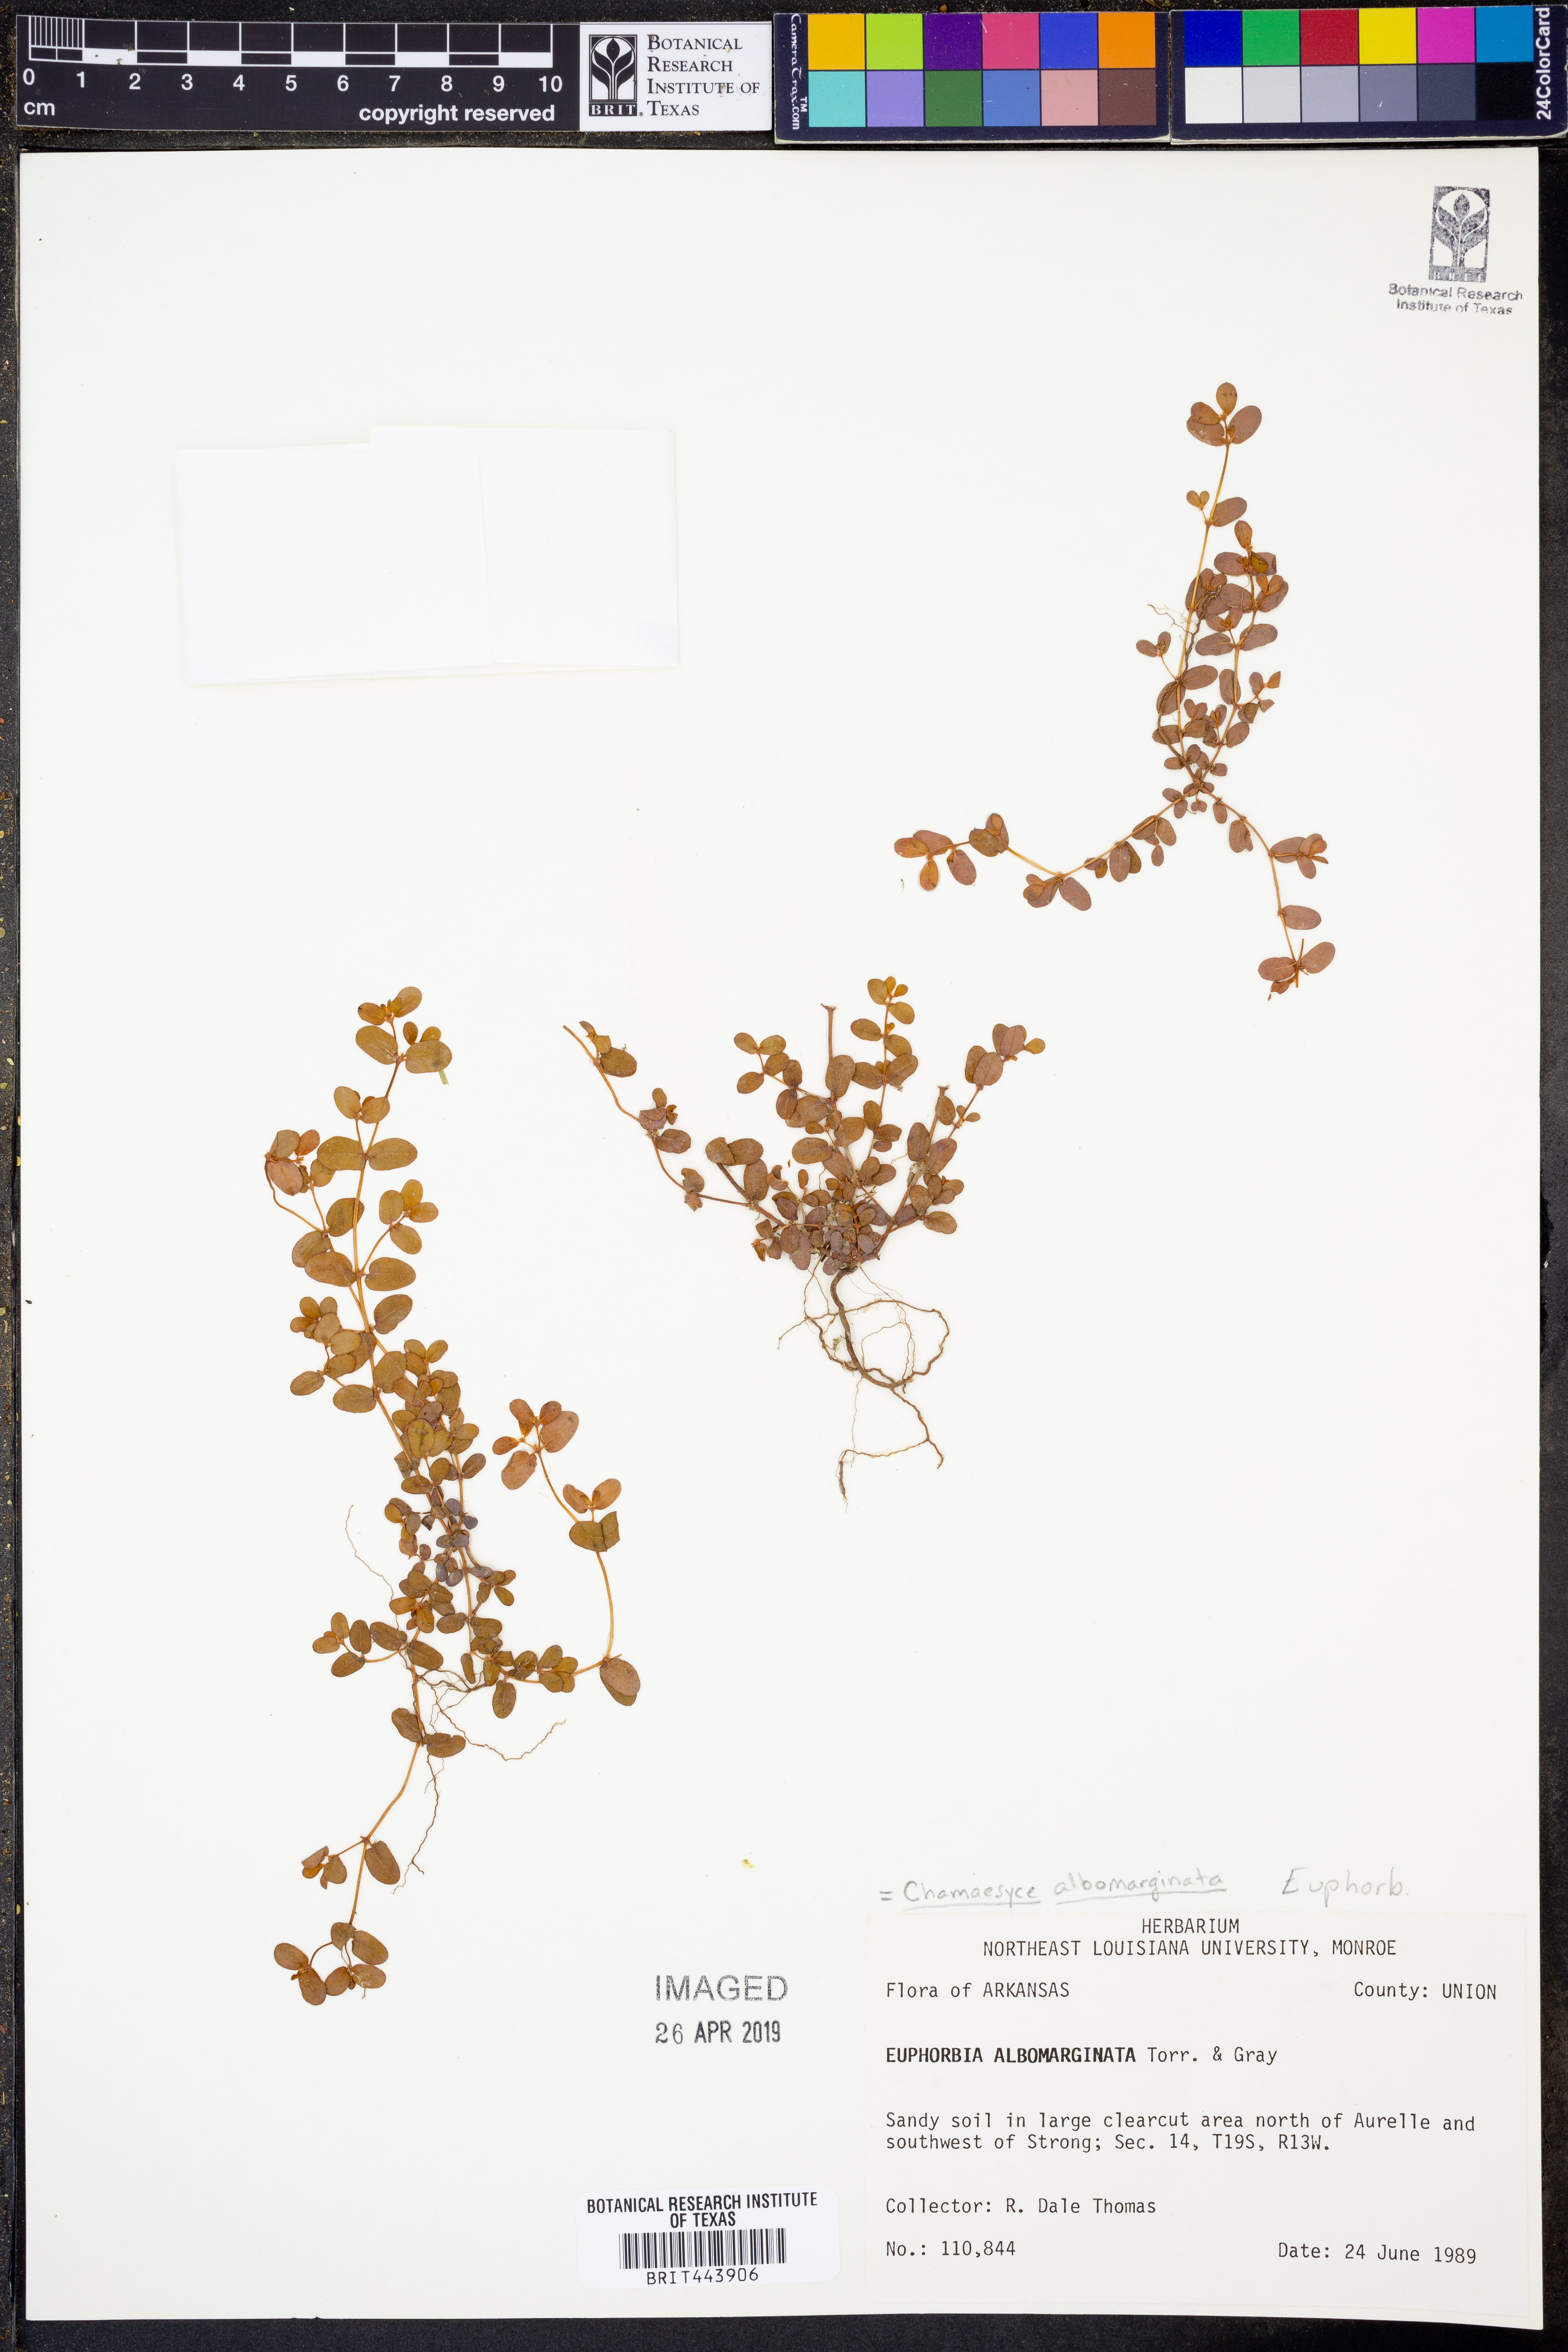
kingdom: Plantae
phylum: Tracheophyta
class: Magnoliopsida
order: Malpighiales
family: Euphorbiaceae
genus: Euphorbia
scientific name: Euphorbia albomarginata
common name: Whitemargin sandmat
